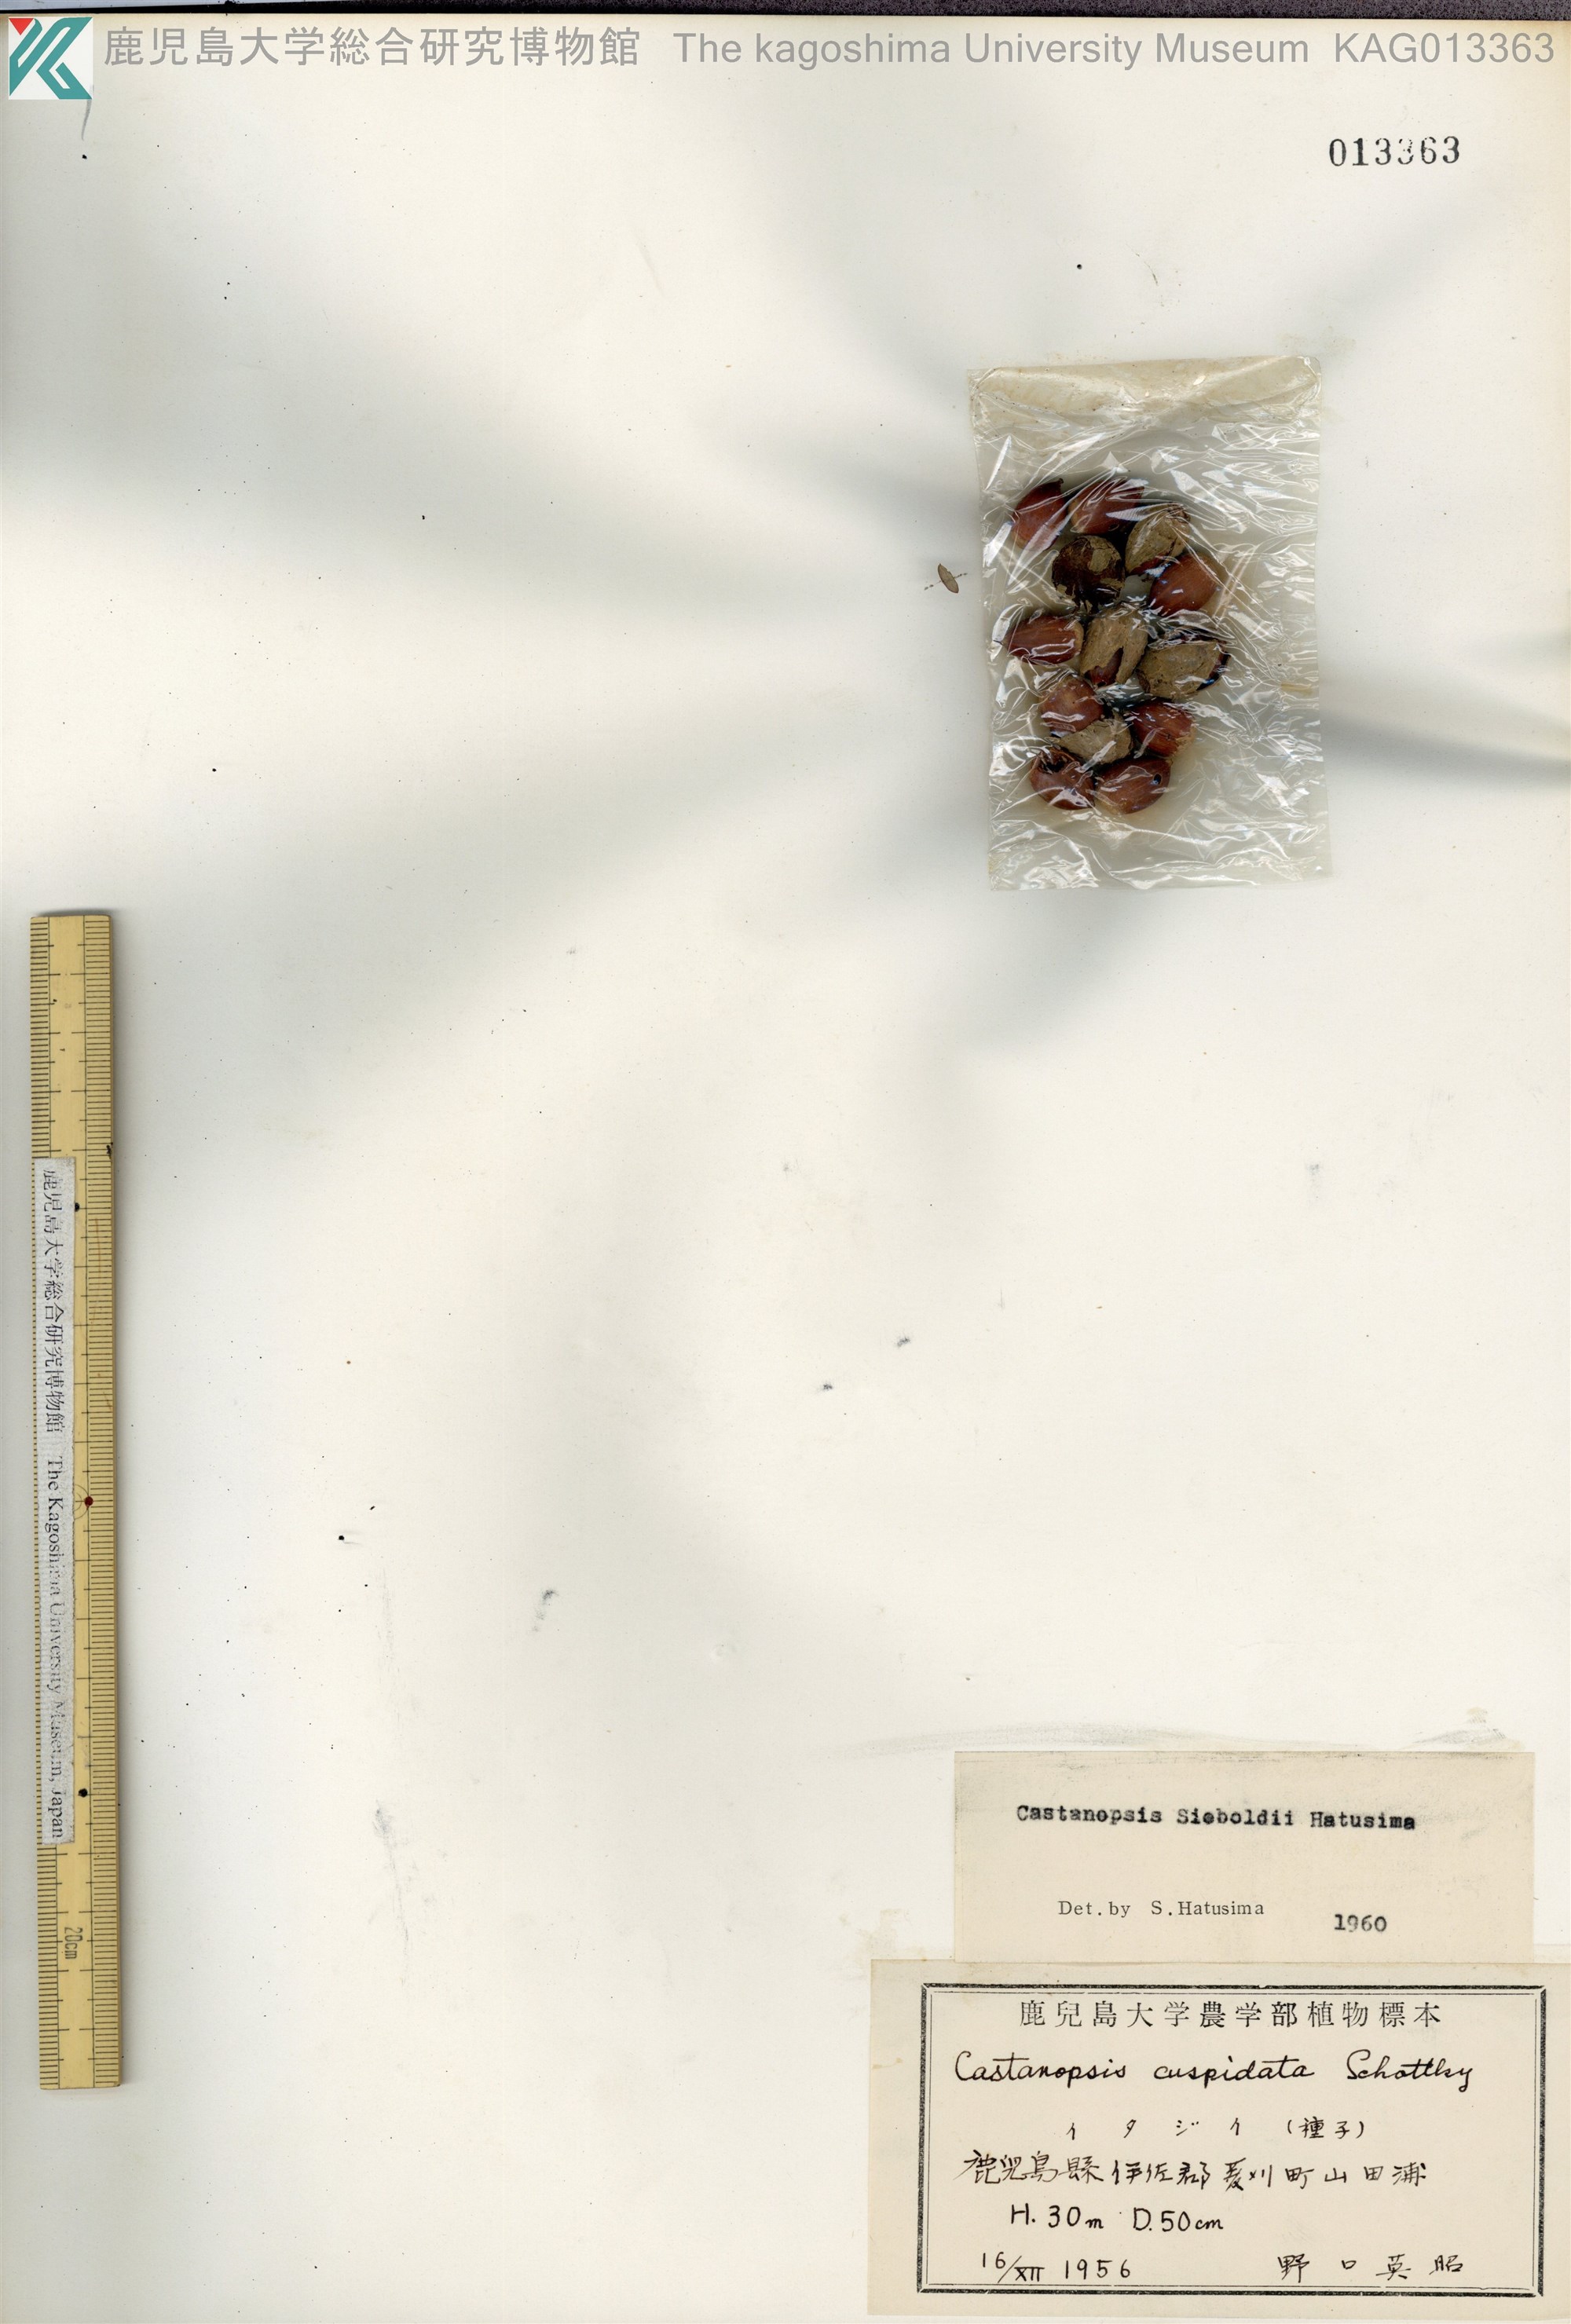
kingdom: Plantae
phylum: Tracheophyta
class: Magnoliopsida
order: Fagales
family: Fagaceae
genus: Castanopsis
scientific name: Castanopsis sieboldii
